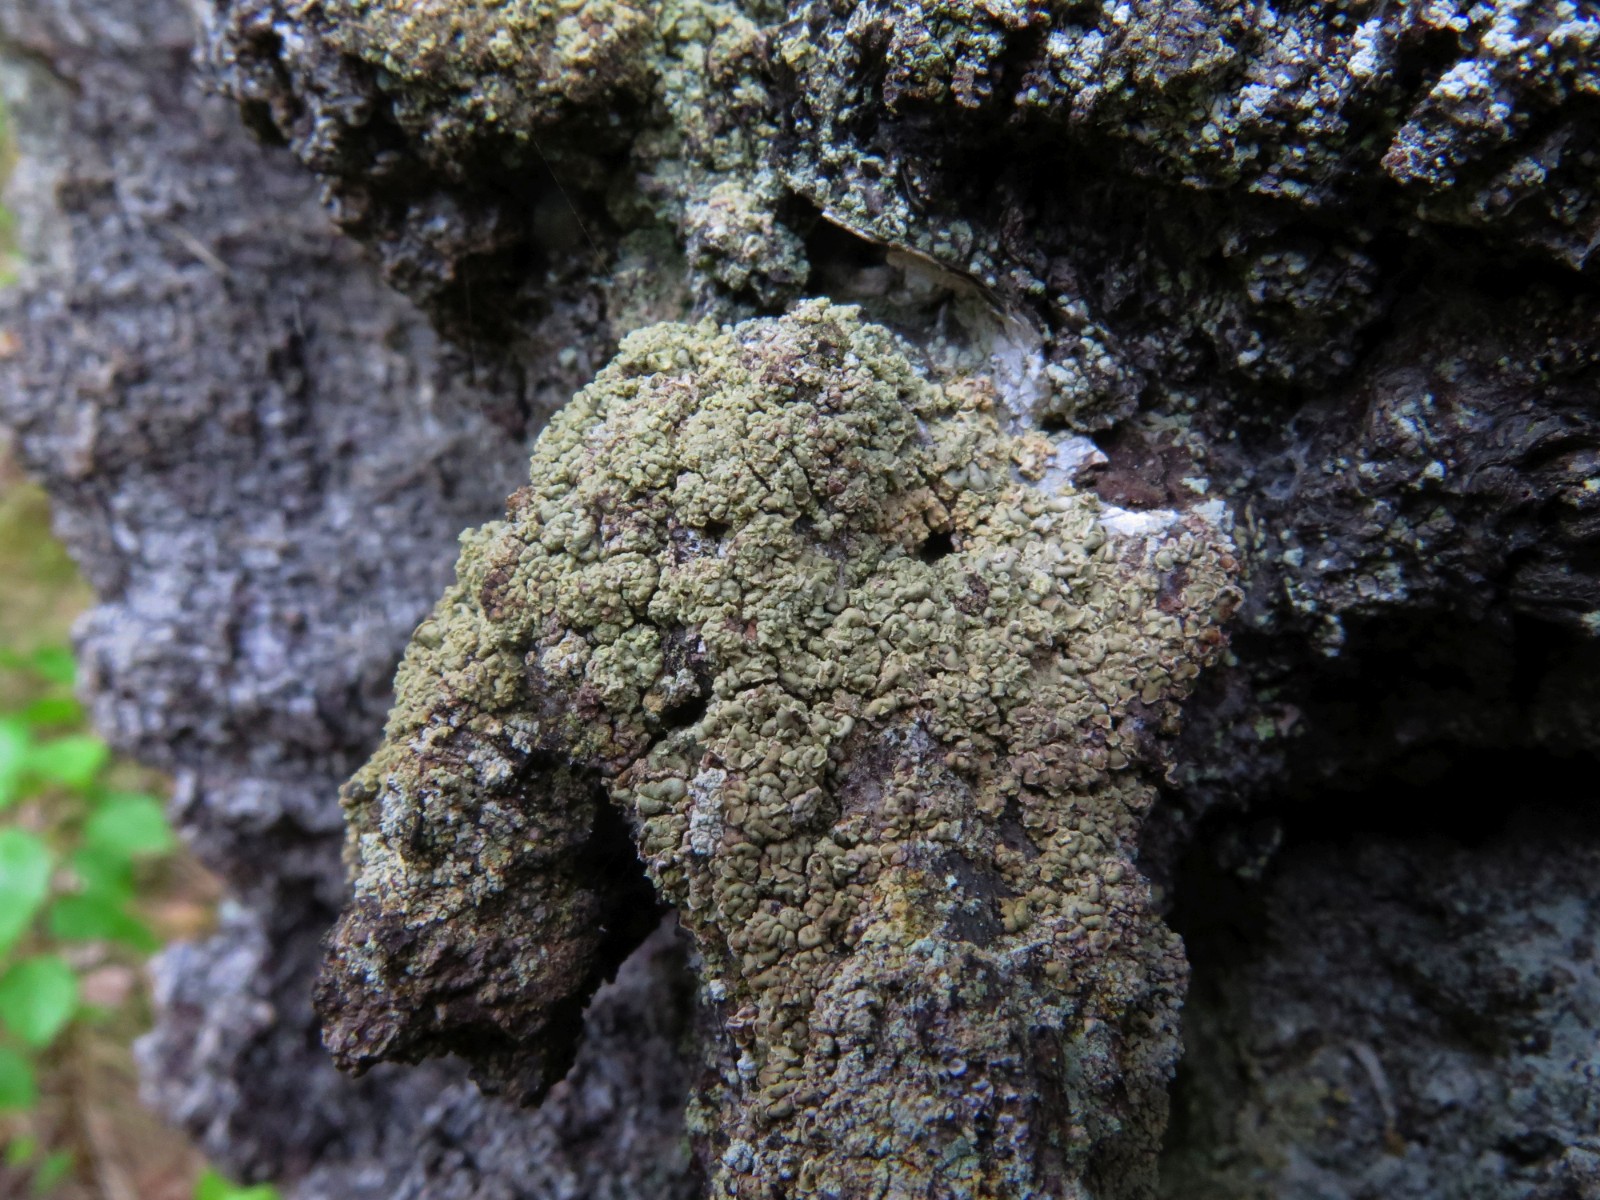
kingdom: Fungi
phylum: Ascomycota
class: Lecanoromycetes
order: Umbilicariales
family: Ophioparmaceae
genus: Hypocenomyce
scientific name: Hypocenomyce scalaris
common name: småskællet muslinglav
